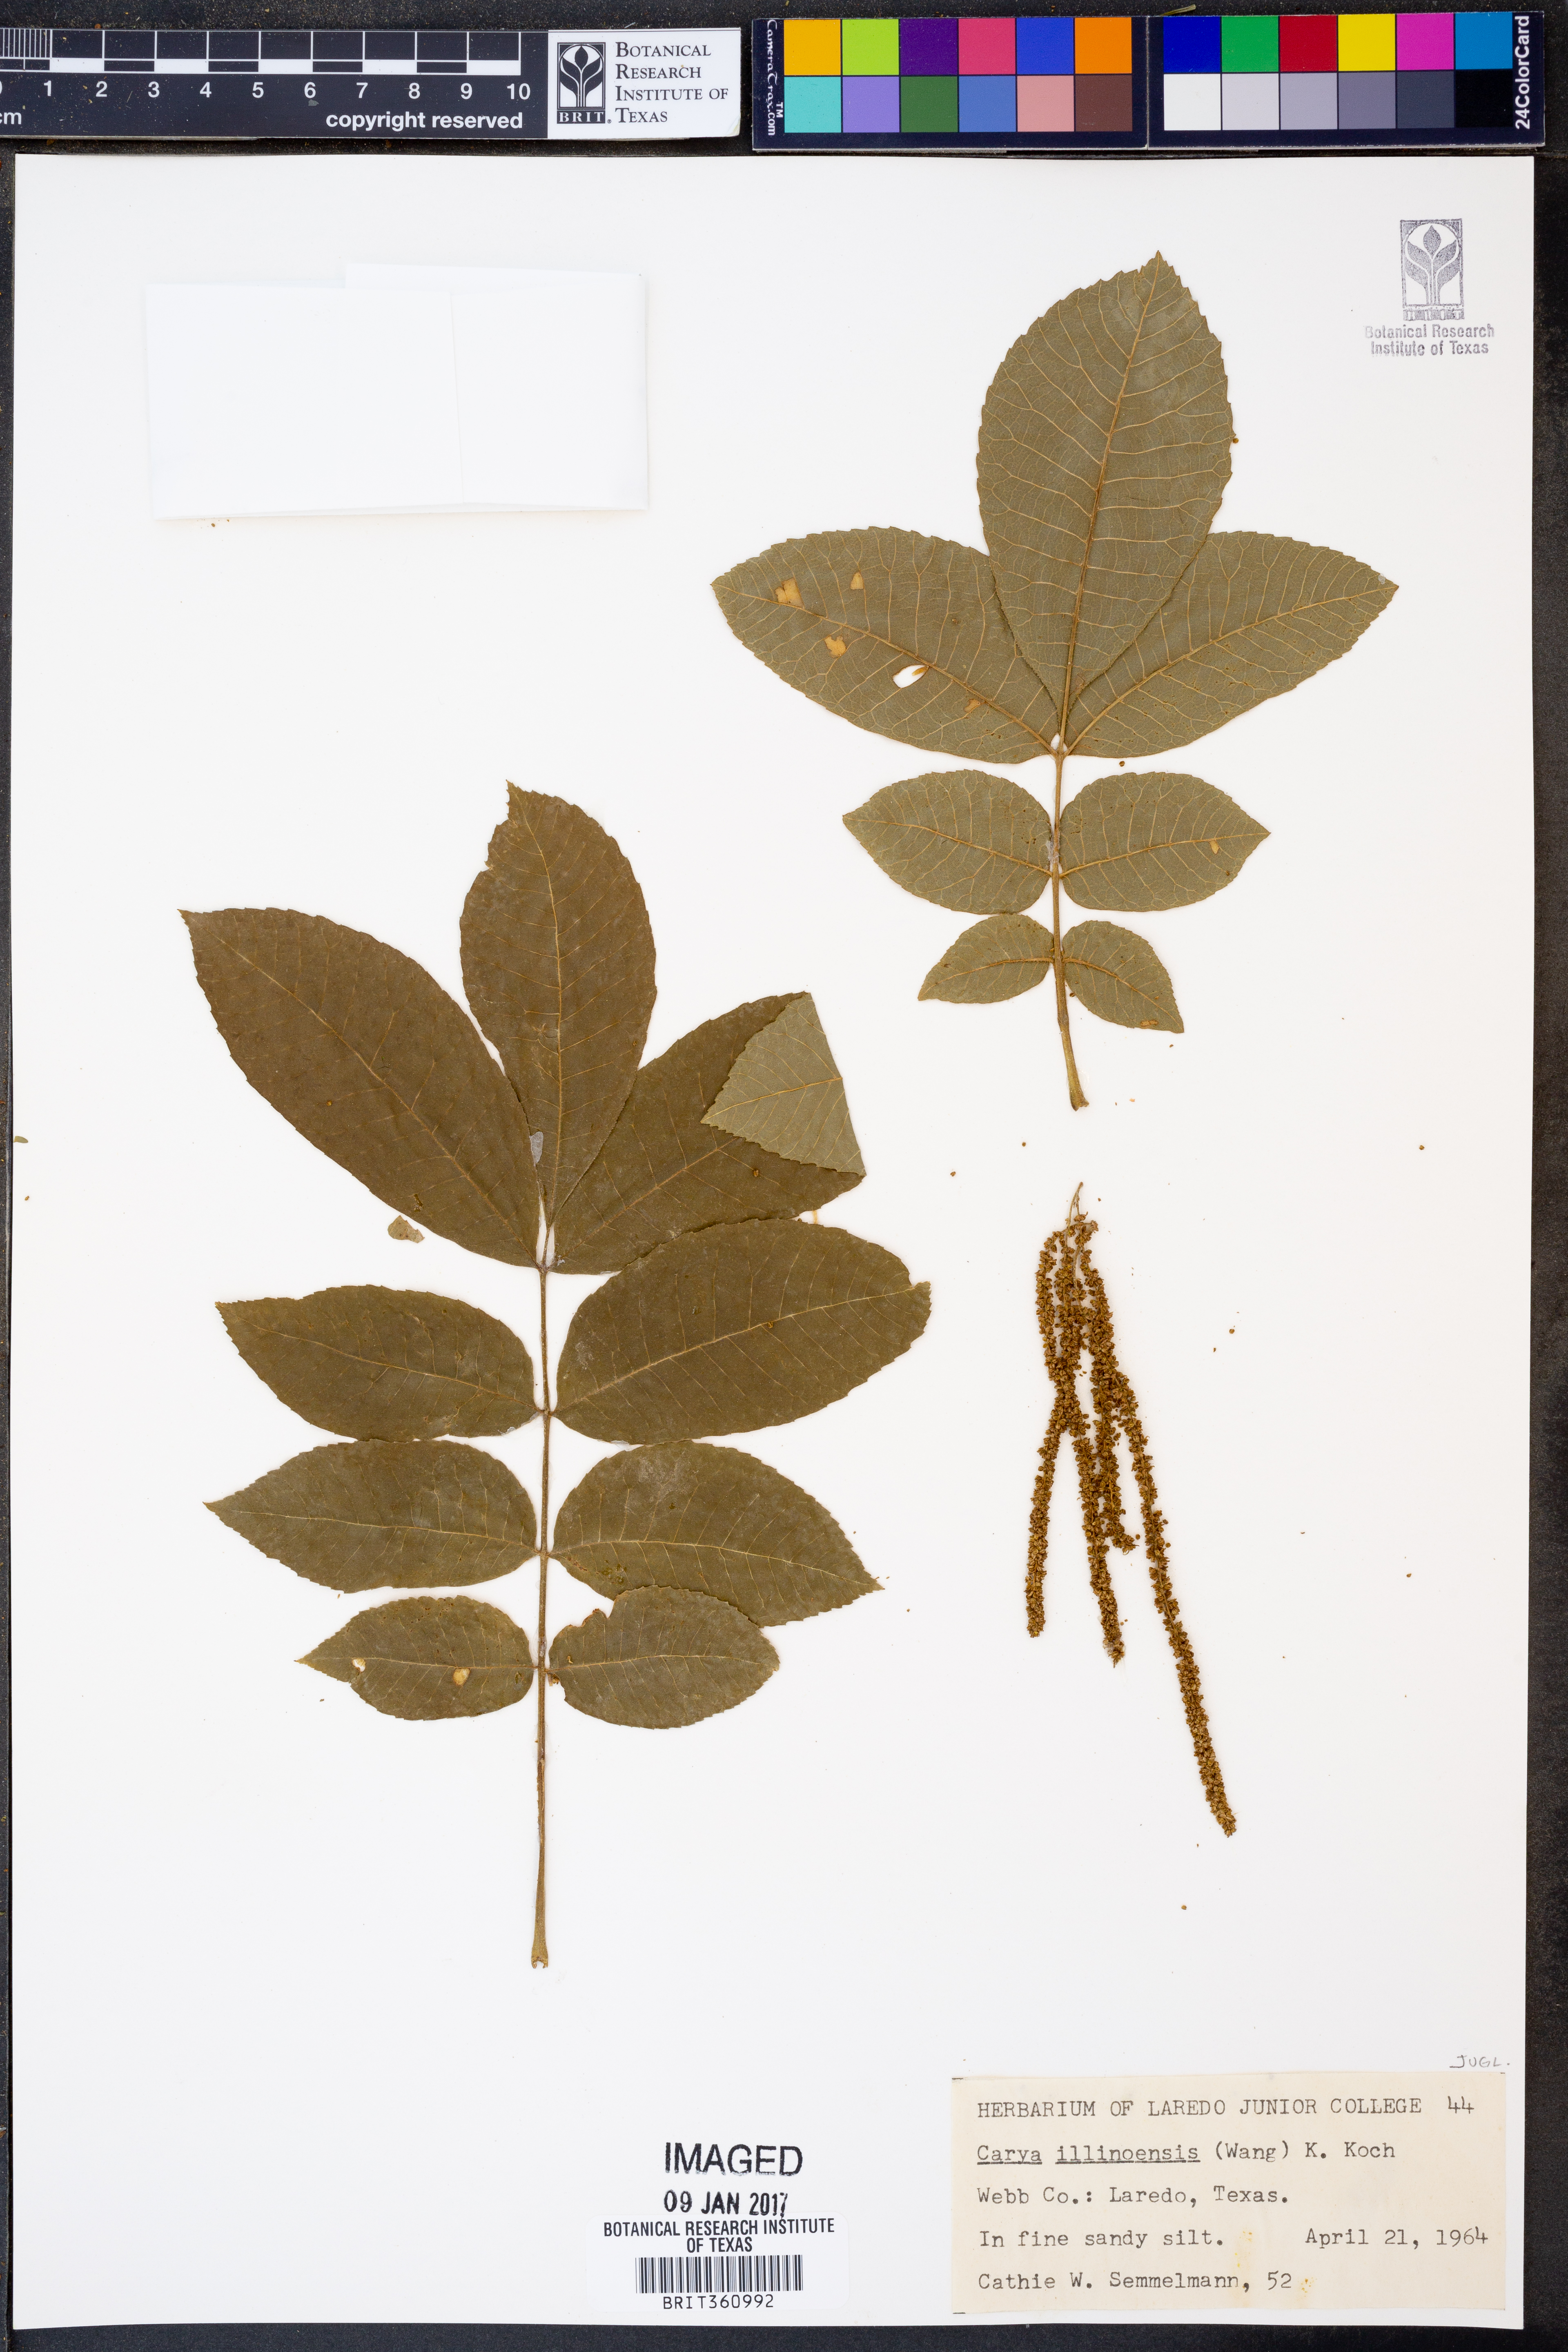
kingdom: Plantae
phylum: Tracheophyta
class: Magnoliopsida
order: Fagales
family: Juglandaceae
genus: Carya
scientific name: Carya illinoinensis
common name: Pecan
